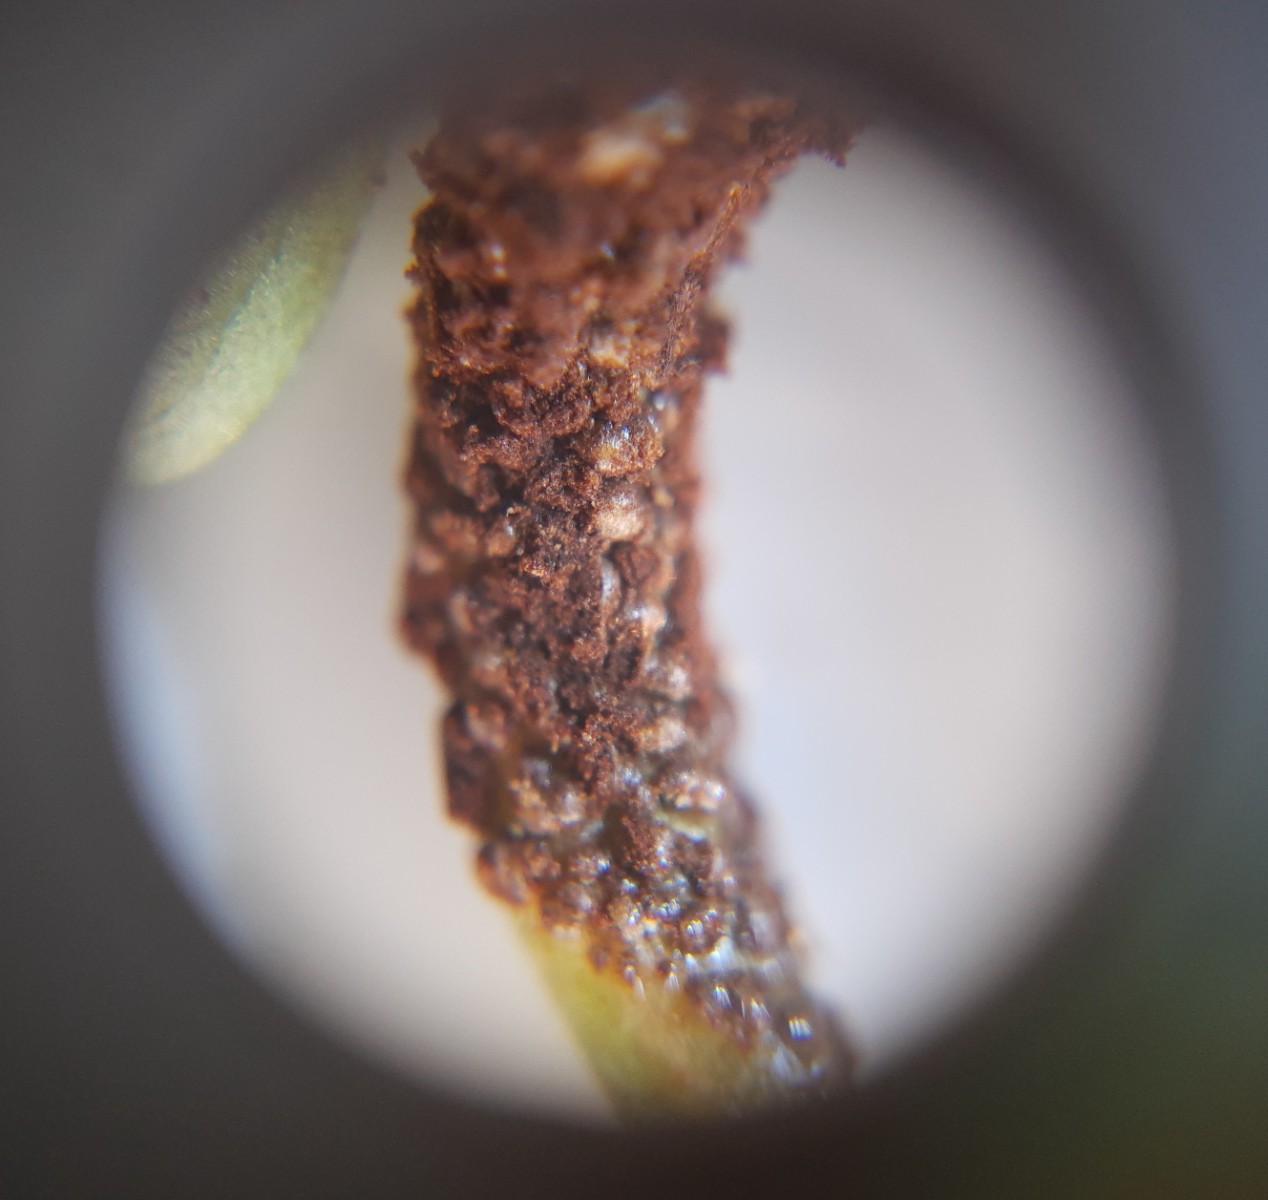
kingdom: Fungi
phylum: Basidiomycota
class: Pucciniomycetes
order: Pucciniales
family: Pucciniaceae
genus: Uromyces
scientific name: Uromyces ficariae
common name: vorterod-encellerust
